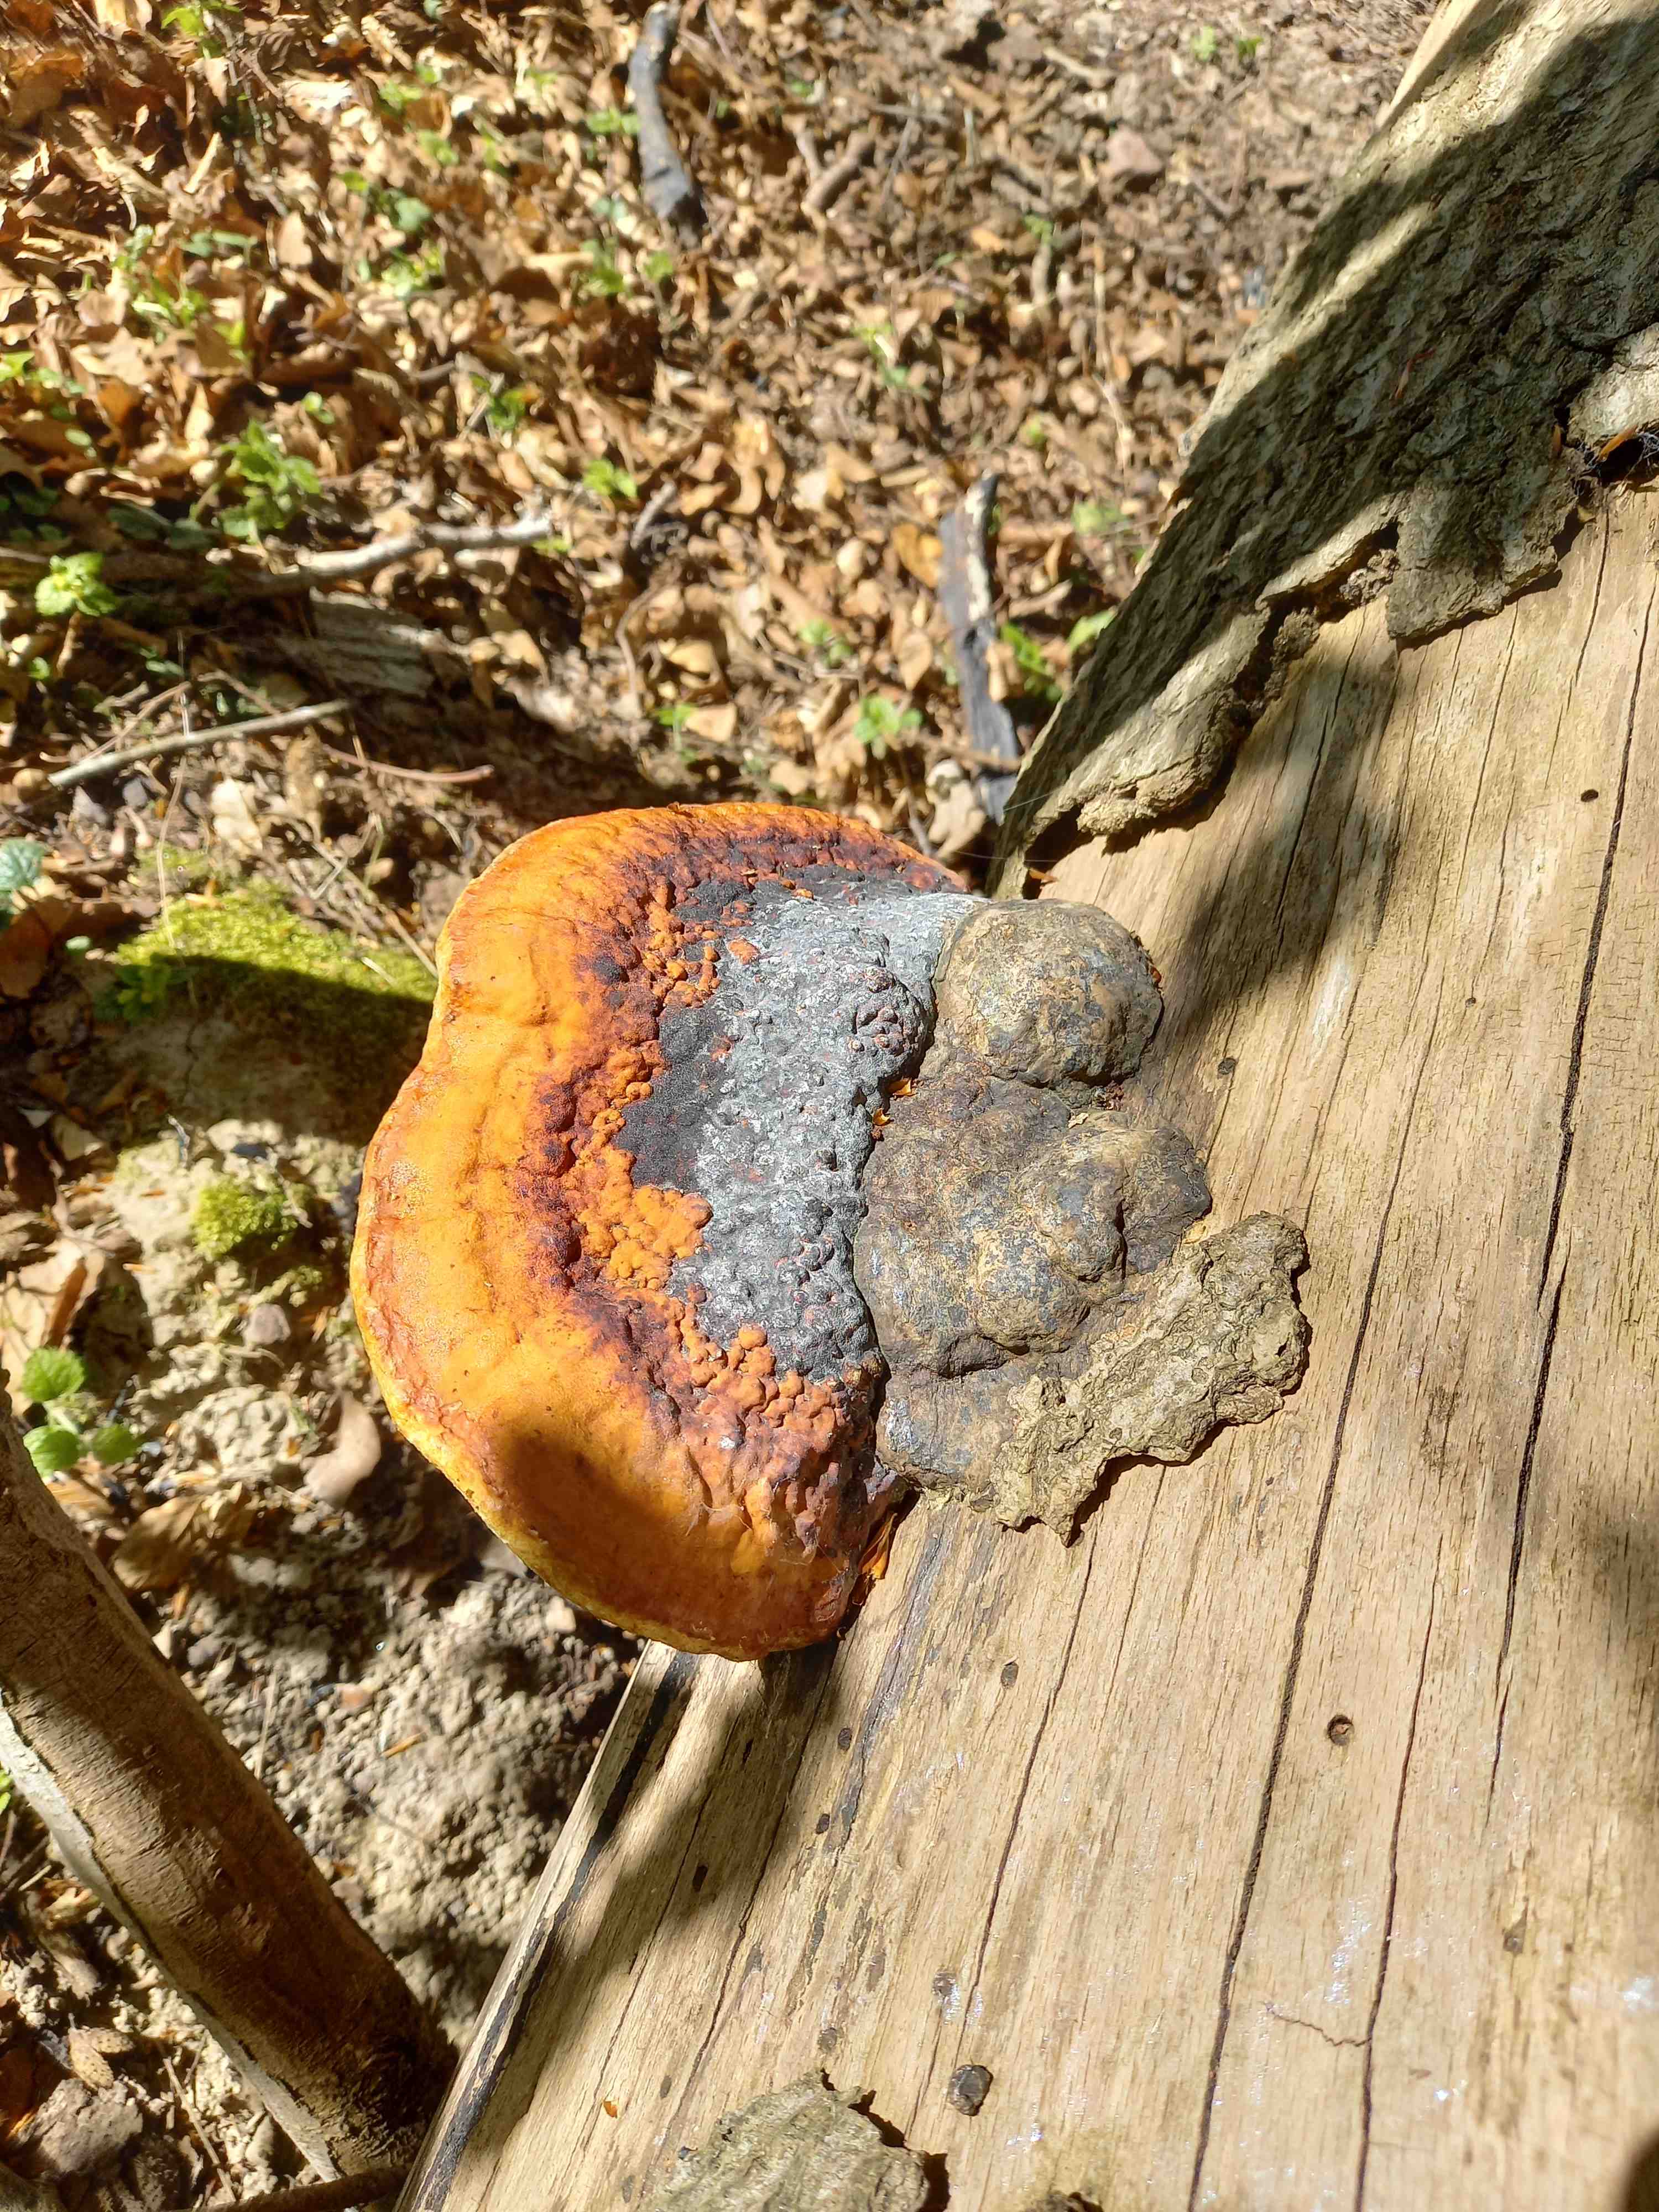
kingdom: Fungi
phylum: Basidiomycota
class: Agaricomycetes
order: Polyporales
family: Fomitopsidaceae
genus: Fomitopsis
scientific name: Fomitopsis pinicola
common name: randbæltet hovporesvamp
